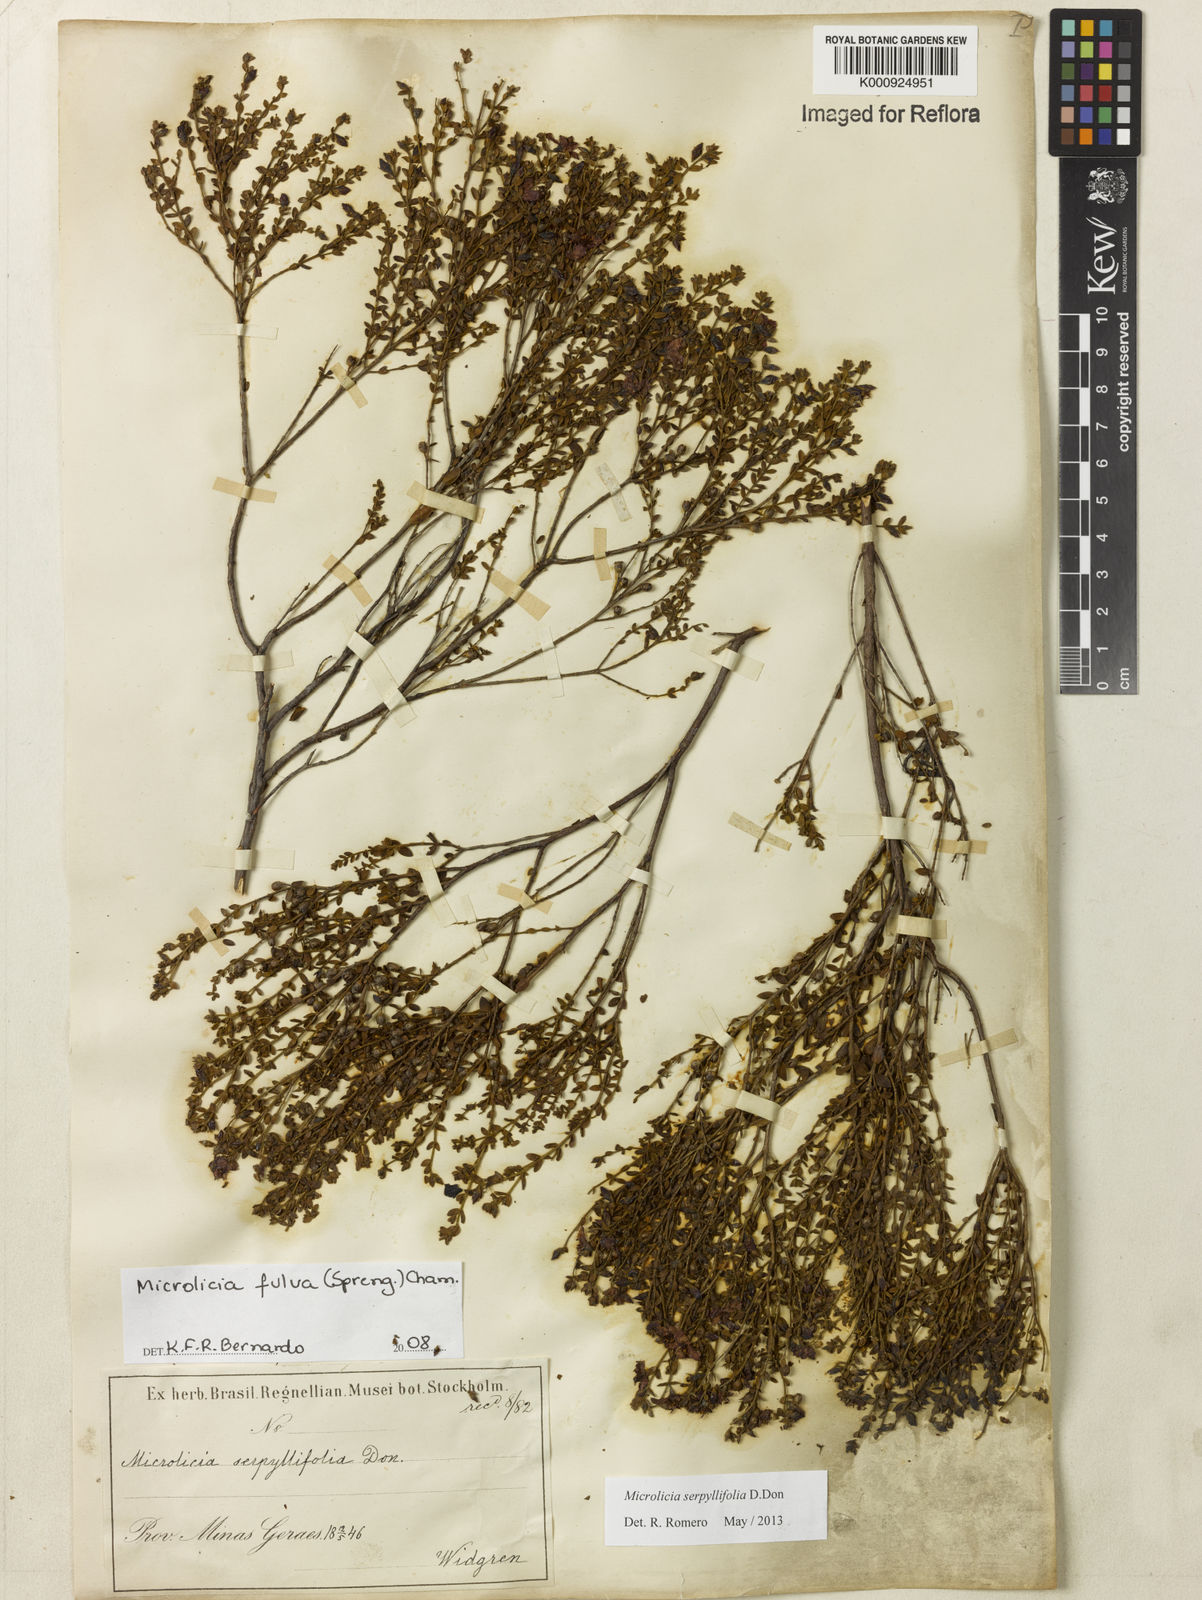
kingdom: Plantae
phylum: Tracheophyta
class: Magnoliopsida
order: Myrtales
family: Melastomataceae
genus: Microlicia
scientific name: Microlicia fulva
